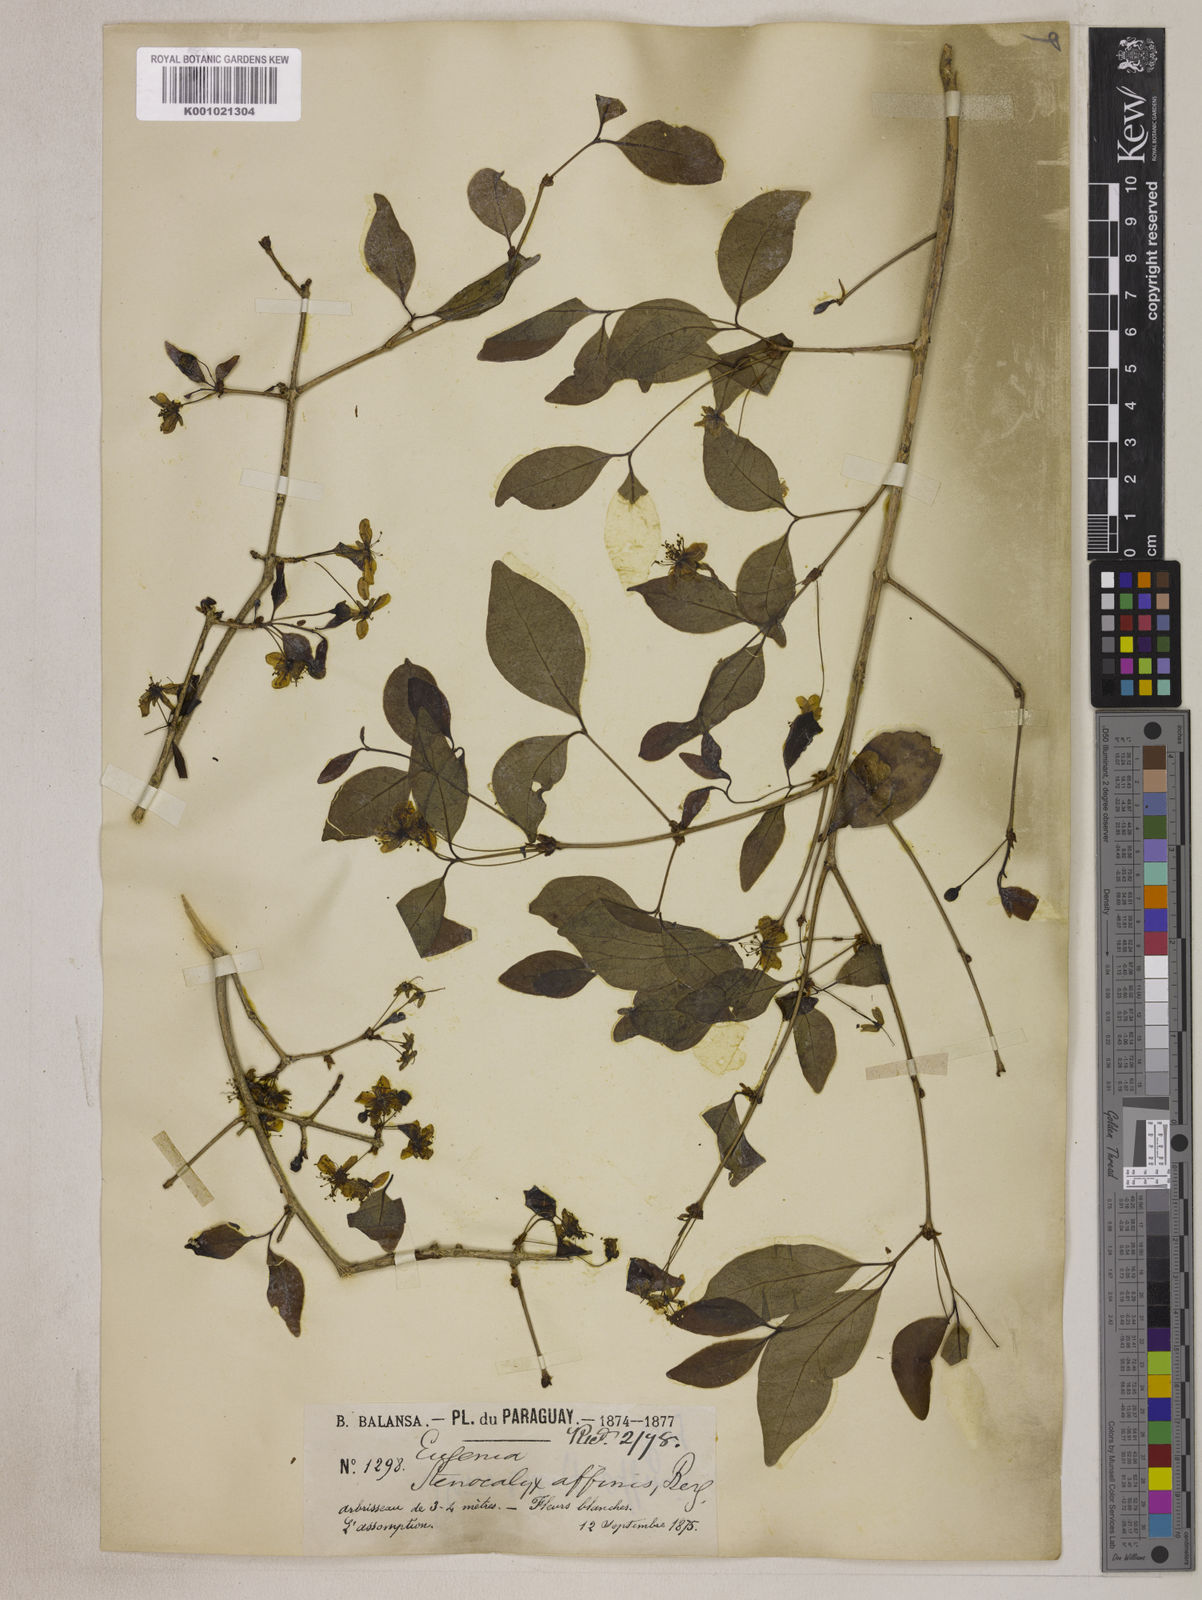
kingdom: Plantae
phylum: Tracheophyta
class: Magnoliopsida
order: Myrtales
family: Myrtaceae
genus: Eugenia
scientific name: Eugenia uniflora
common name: Surinam cherry
